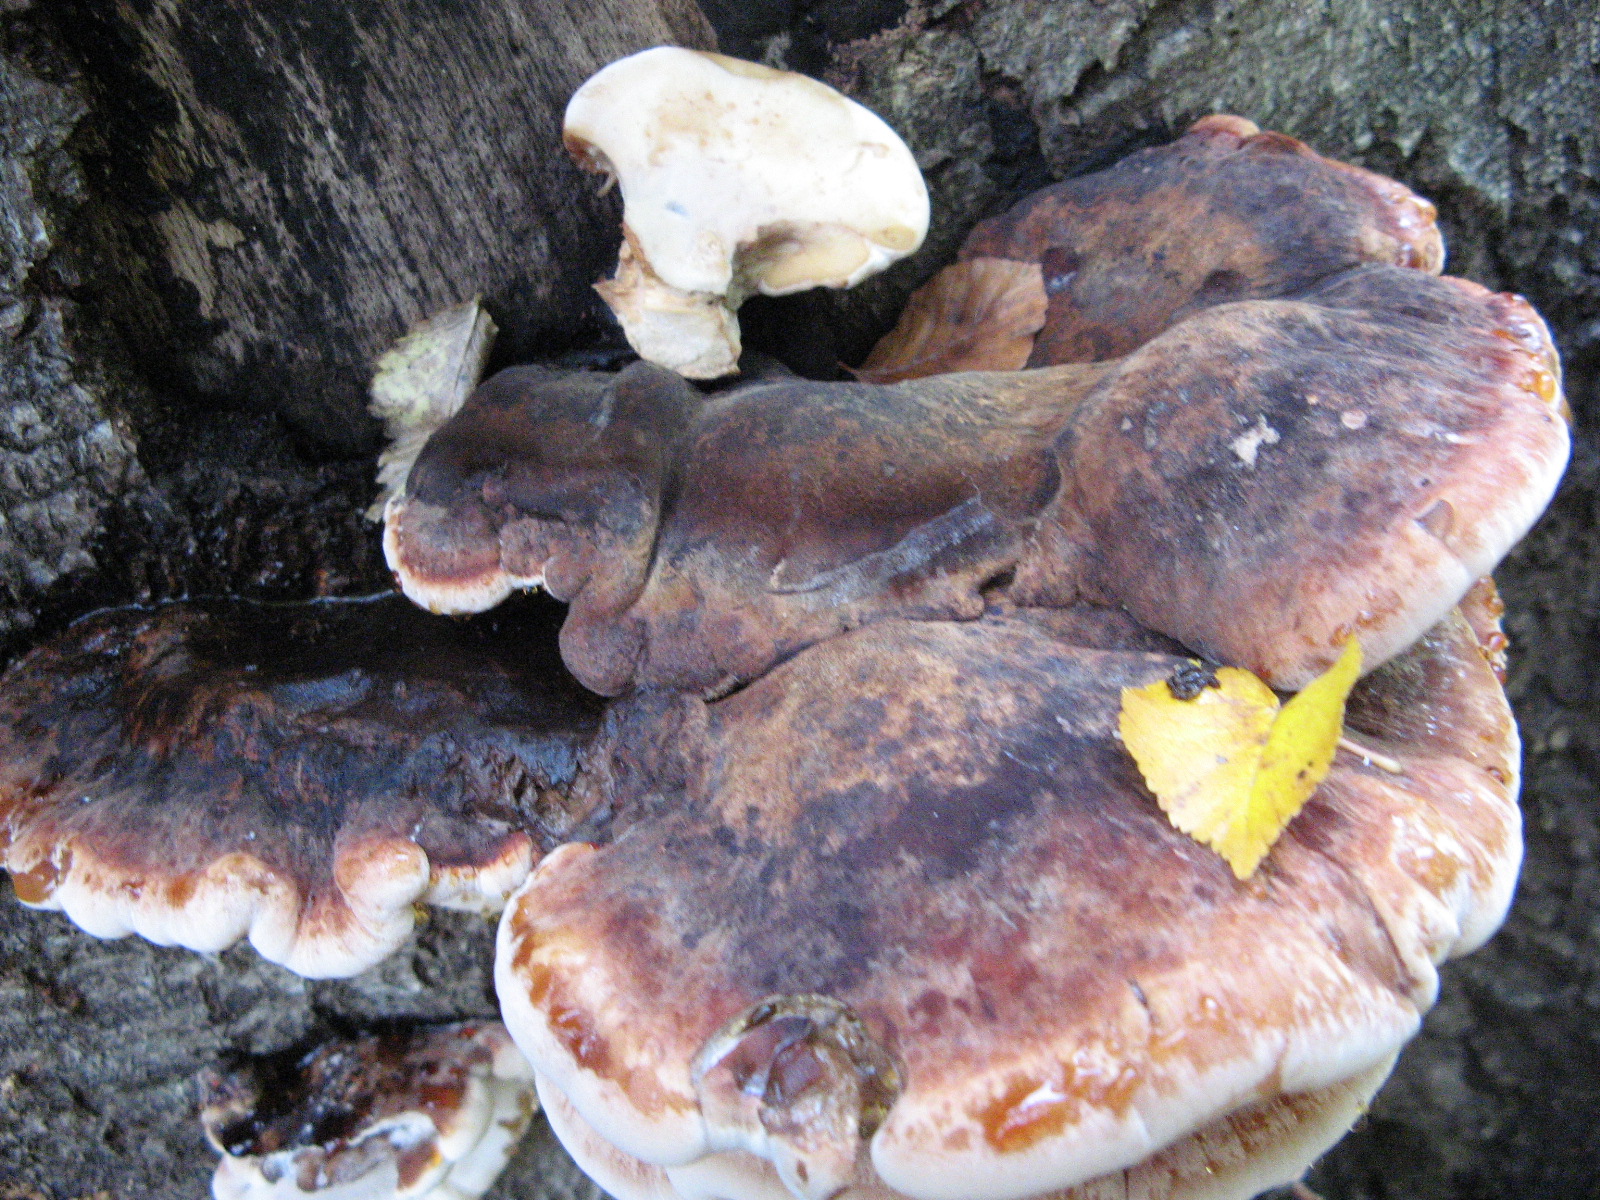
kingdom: Fungi
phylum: Basidiomycota
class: Agaricomycetes
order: Polyporales
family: Fomitopsidaceae
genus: Fomitopsis
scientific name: Fomitopsis pinicola
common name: randbæltet hovporesvamp
